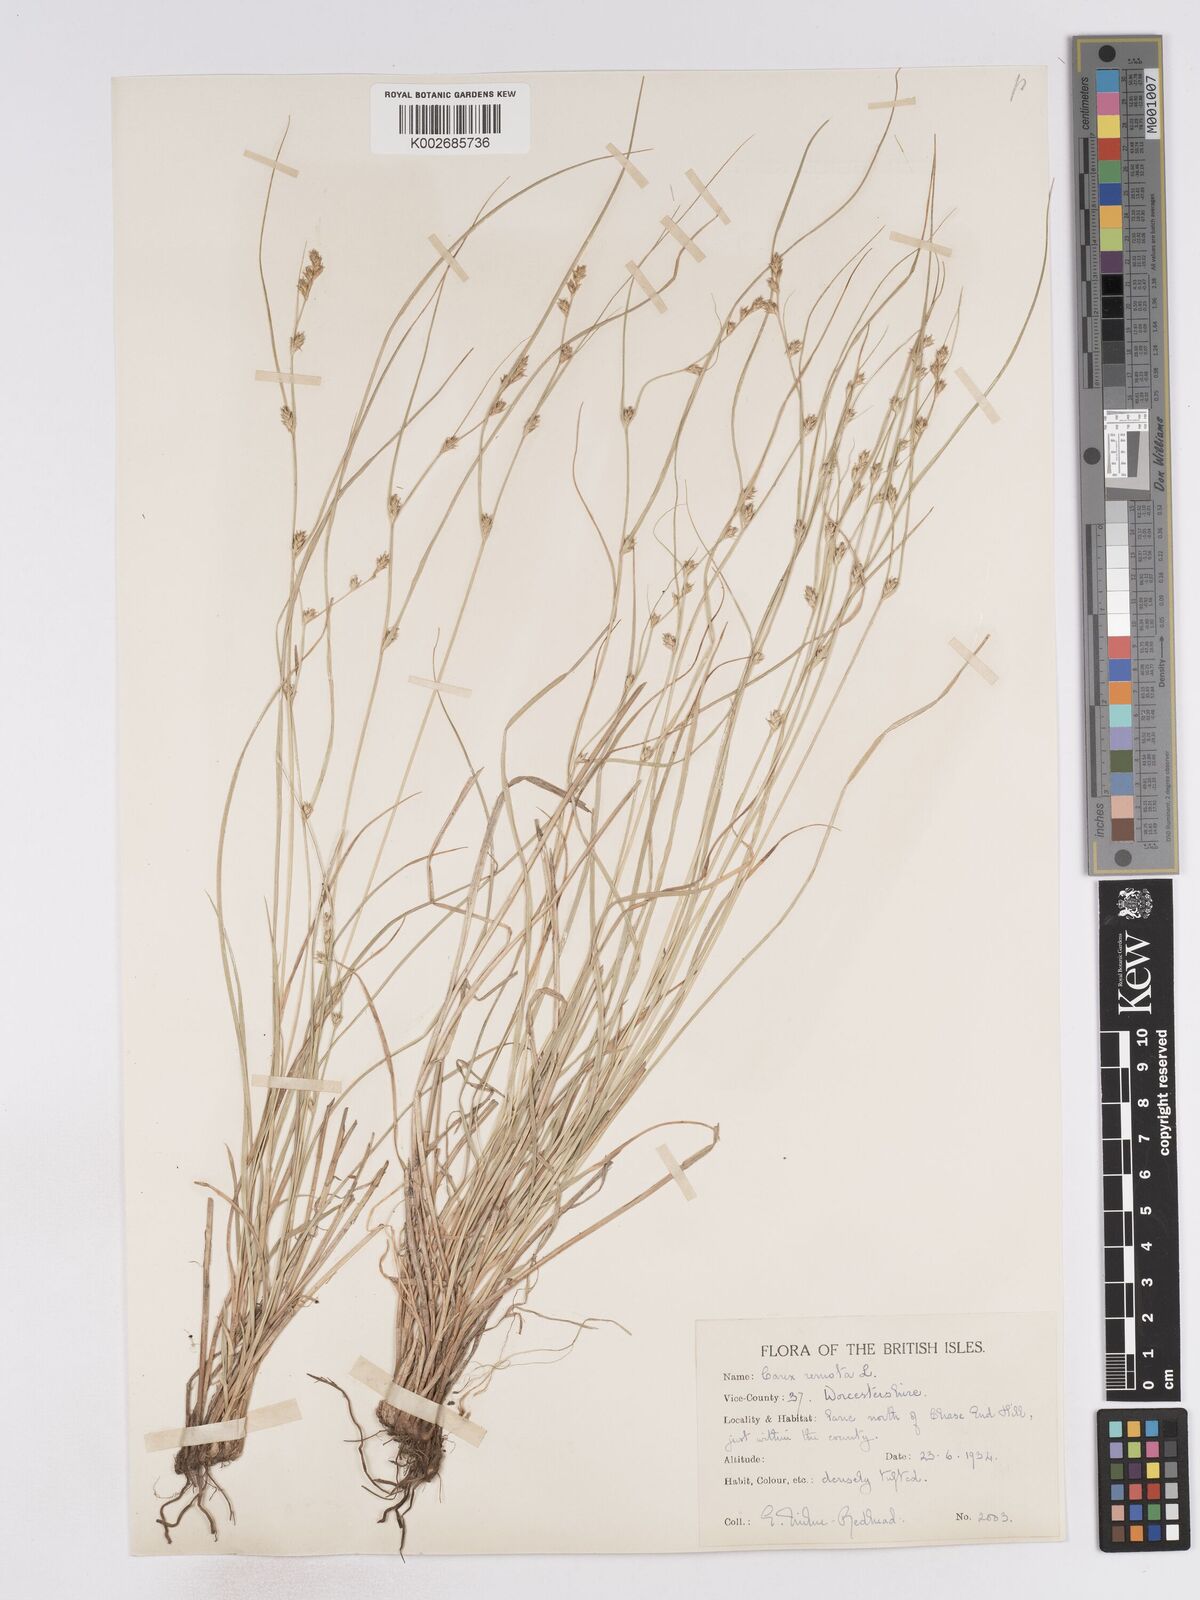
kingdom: Plantae
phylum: Tracheophyta
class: Liliopsida
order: Poales
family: Cyperaceae
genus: Carex
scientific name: Carex remota
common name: Remote sedge
